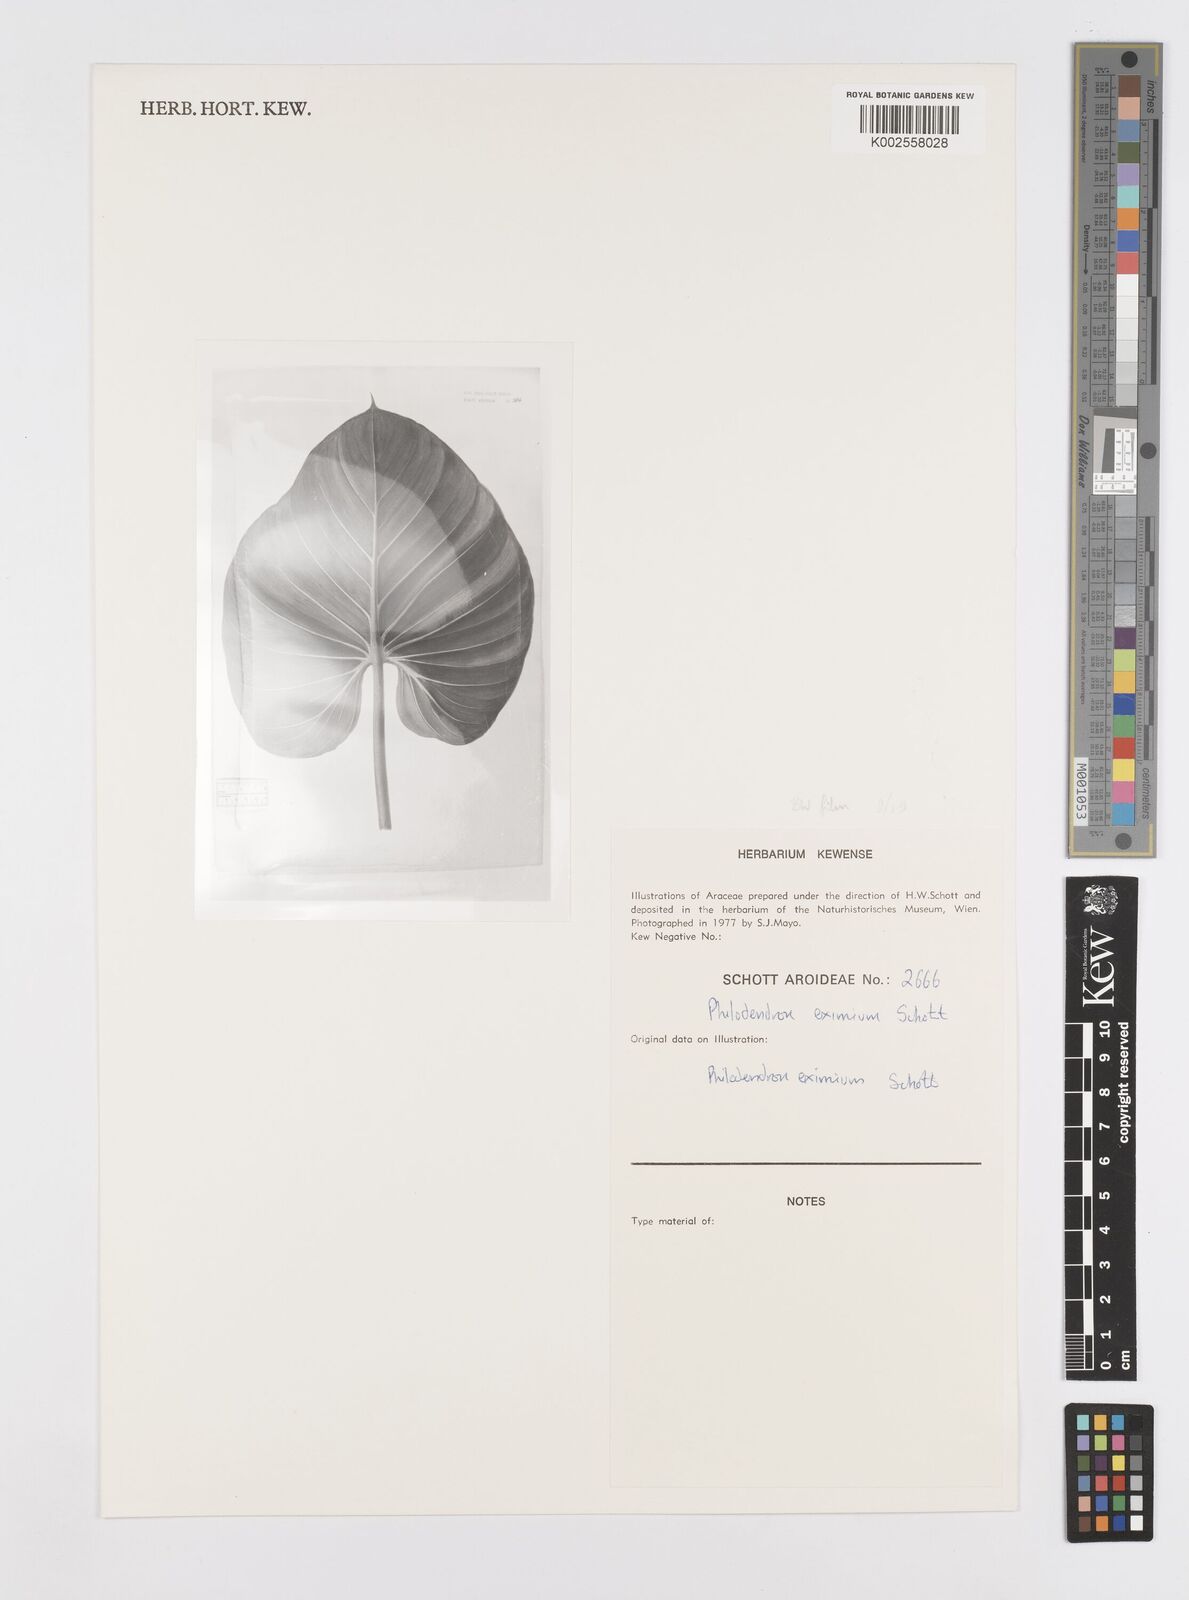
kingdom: Plantae
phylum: Tracheophyta
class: Liliopsida
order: Alismatales
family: Araceae
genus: Philodendron
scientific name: Philodendron eximium
